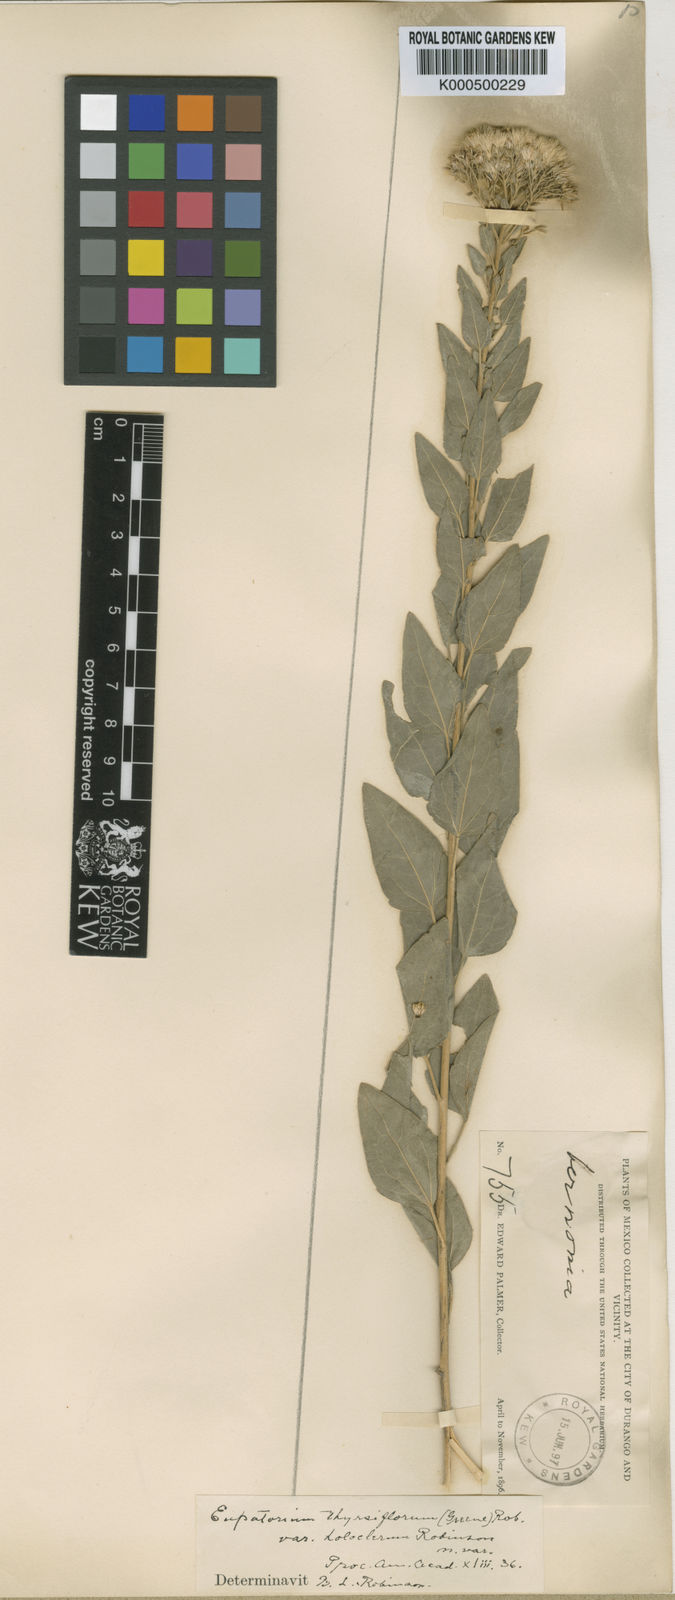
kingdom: Plantae
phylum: Tracheophyta
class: Magnoliopsida
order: Asterales
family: Asteraceae
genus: Ageratina
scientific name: Ageratina thyrsiflora
